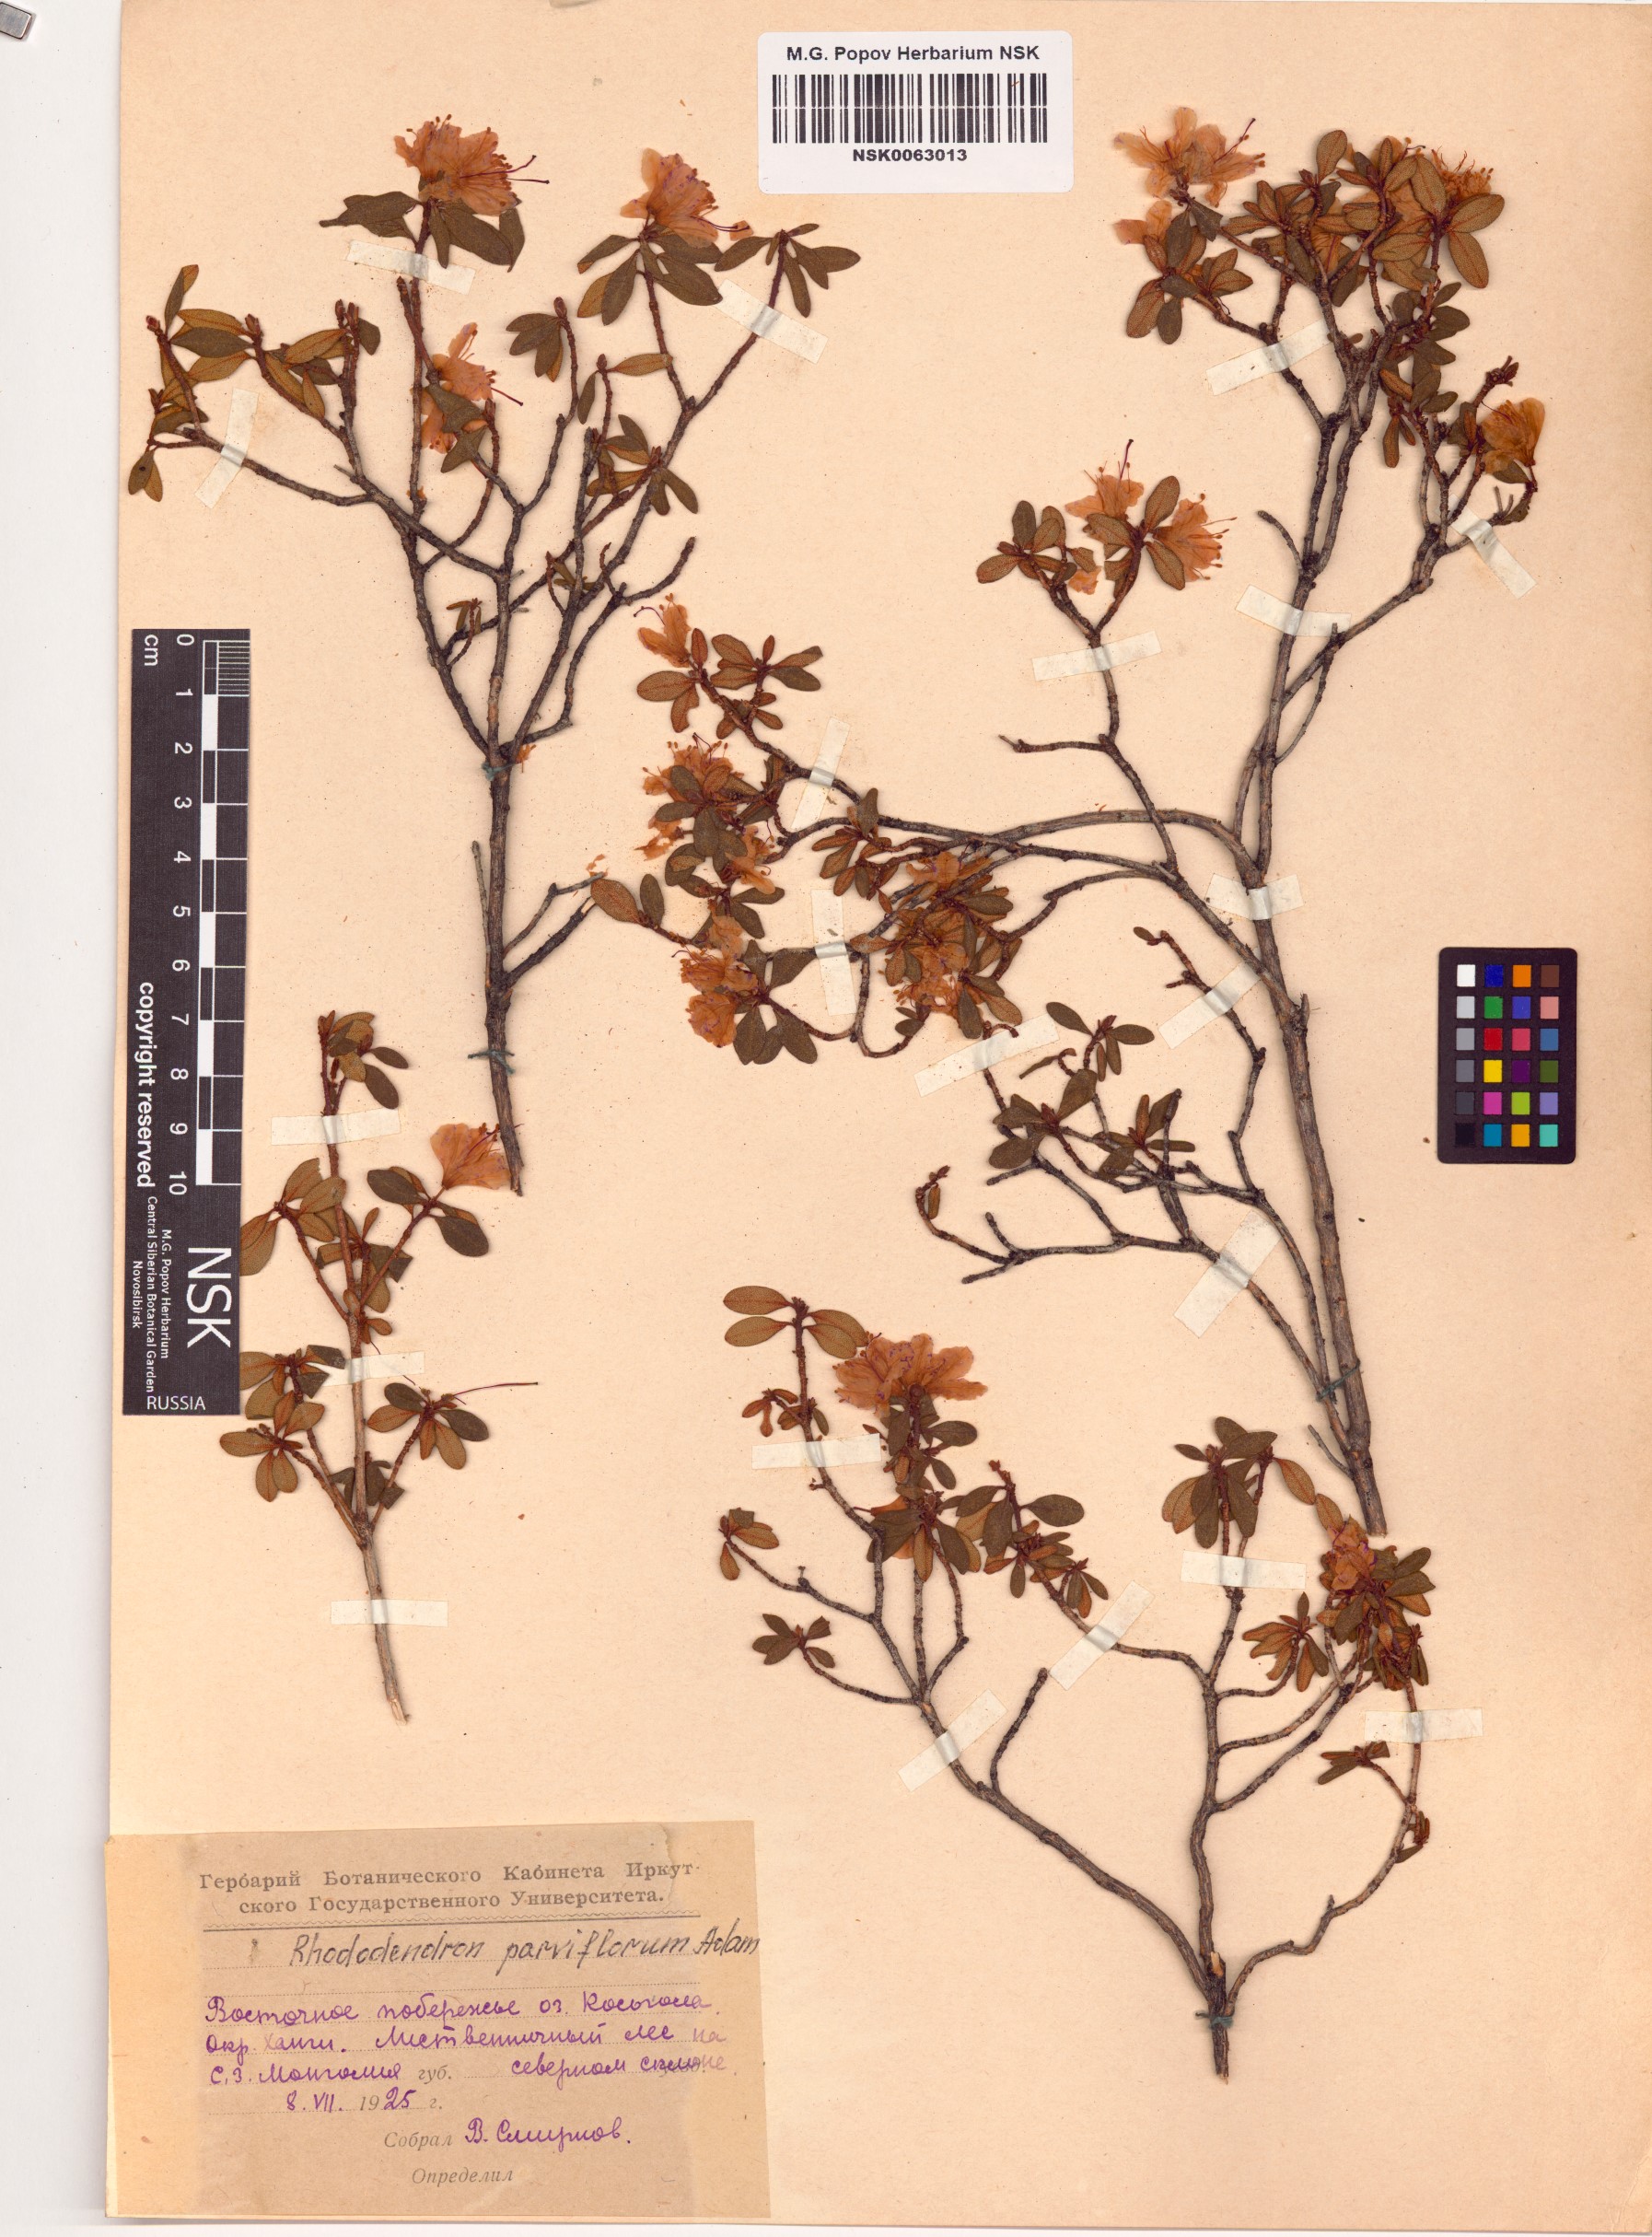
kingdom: Plantae
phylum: Tracheophyta
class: Magnoliopsida
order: Ericales
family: Ericaceae
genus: Rhododendron
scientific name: Rhododendron parvifolium
